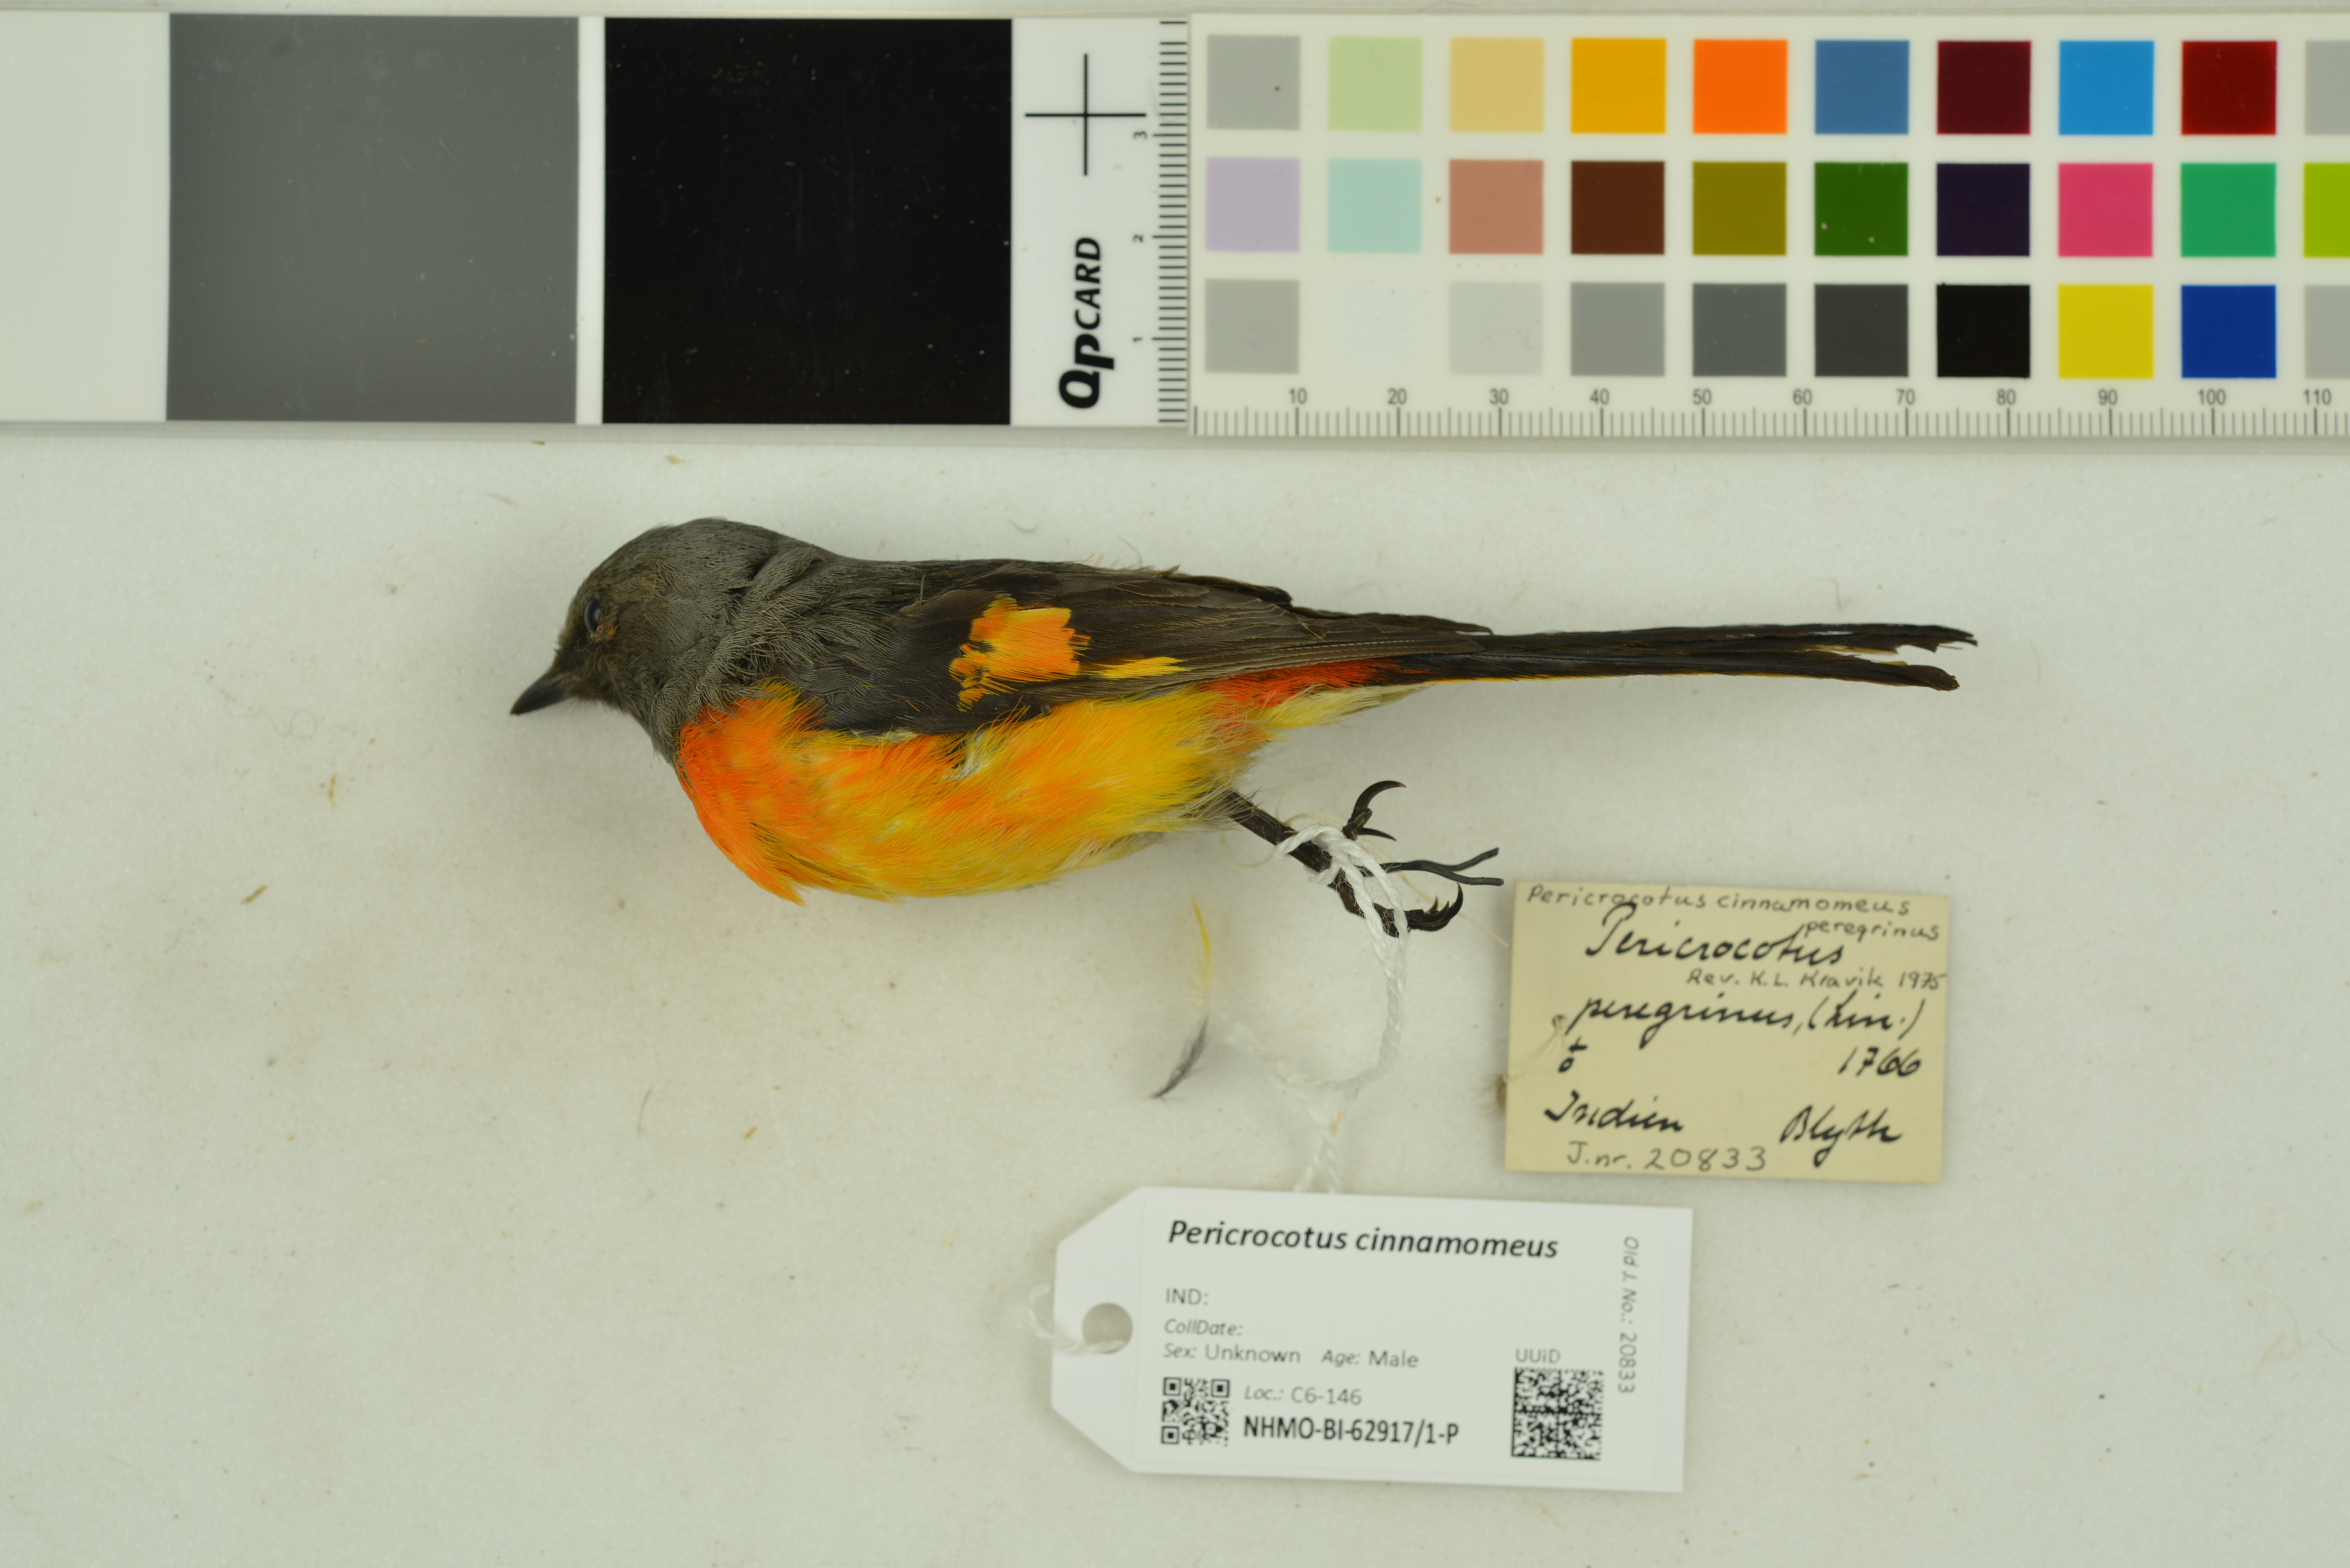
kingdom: Animalia
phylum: Chordata
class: Aves
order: Passeriformes
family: Campephagidae
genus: Pericrocotus
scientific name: Pericrocotus cinnamomeus
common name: Small minivet
